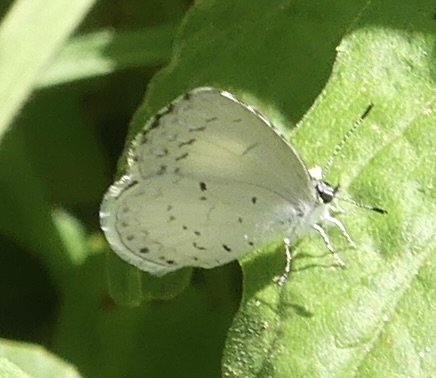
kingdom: Animalia
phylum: Arthropoda
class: Insecta
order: Lepidoptera
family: Lycaenidae
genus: Cyaniris
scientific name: Cyaniris neglecta
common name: Summer Azure
